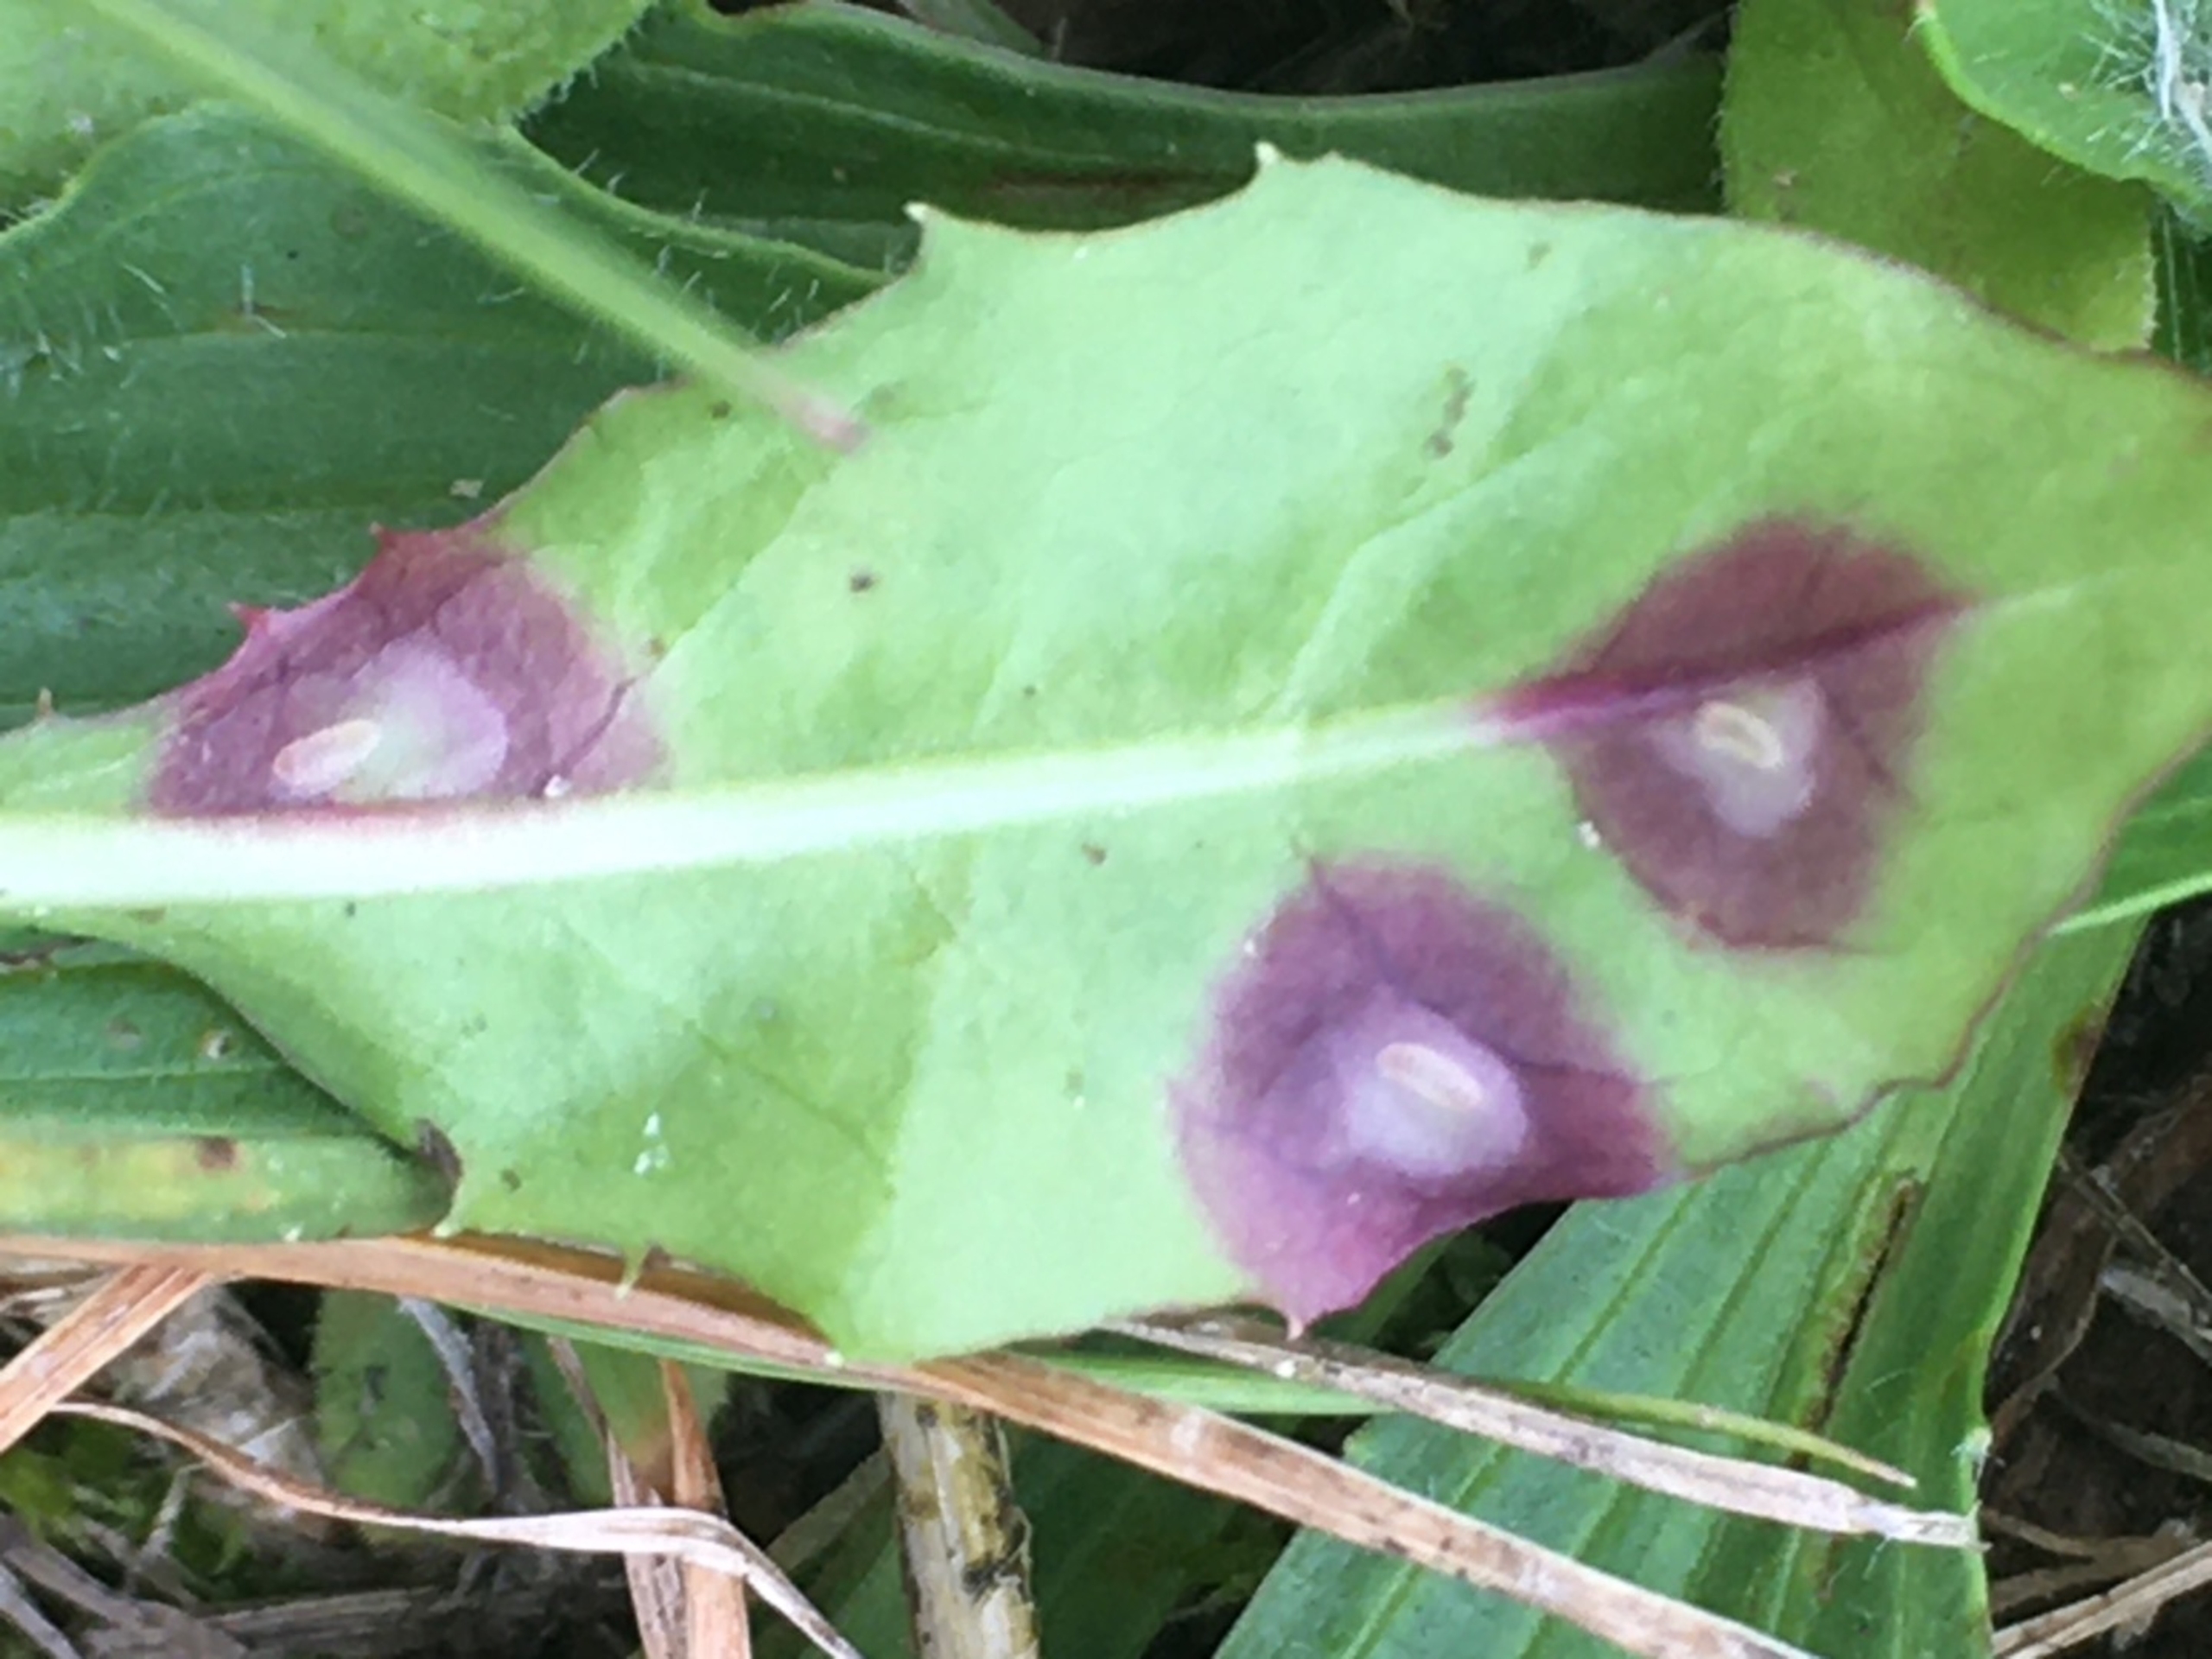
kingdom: Animalia
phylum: Arthropoda
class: Insecta
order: Diptera
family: Cecidomyiidae
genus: Cystiphora
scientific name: Cystiphora taraxaci
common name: Mælkebøttegalmyg
